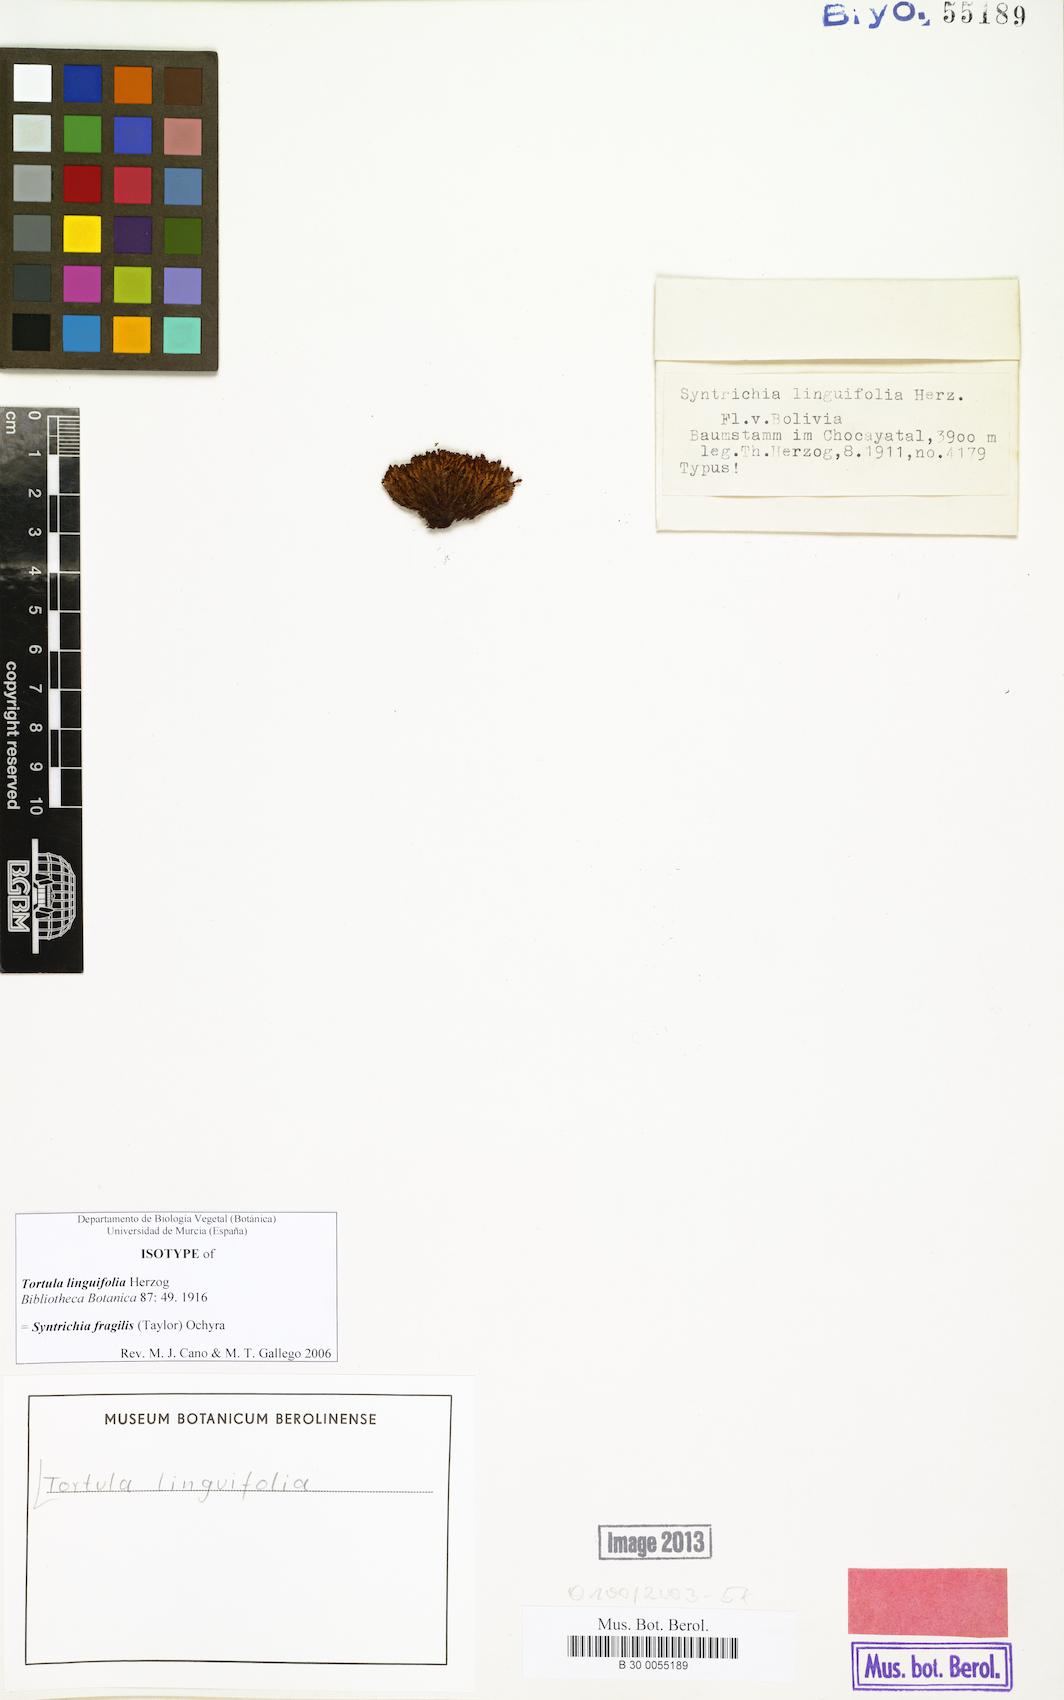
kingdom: Plantae
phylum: Bryophyta
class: Bryopsida
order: Pottiales
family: Pottiaceae
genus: Syntrichia
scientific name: Syntrichia fragilis
